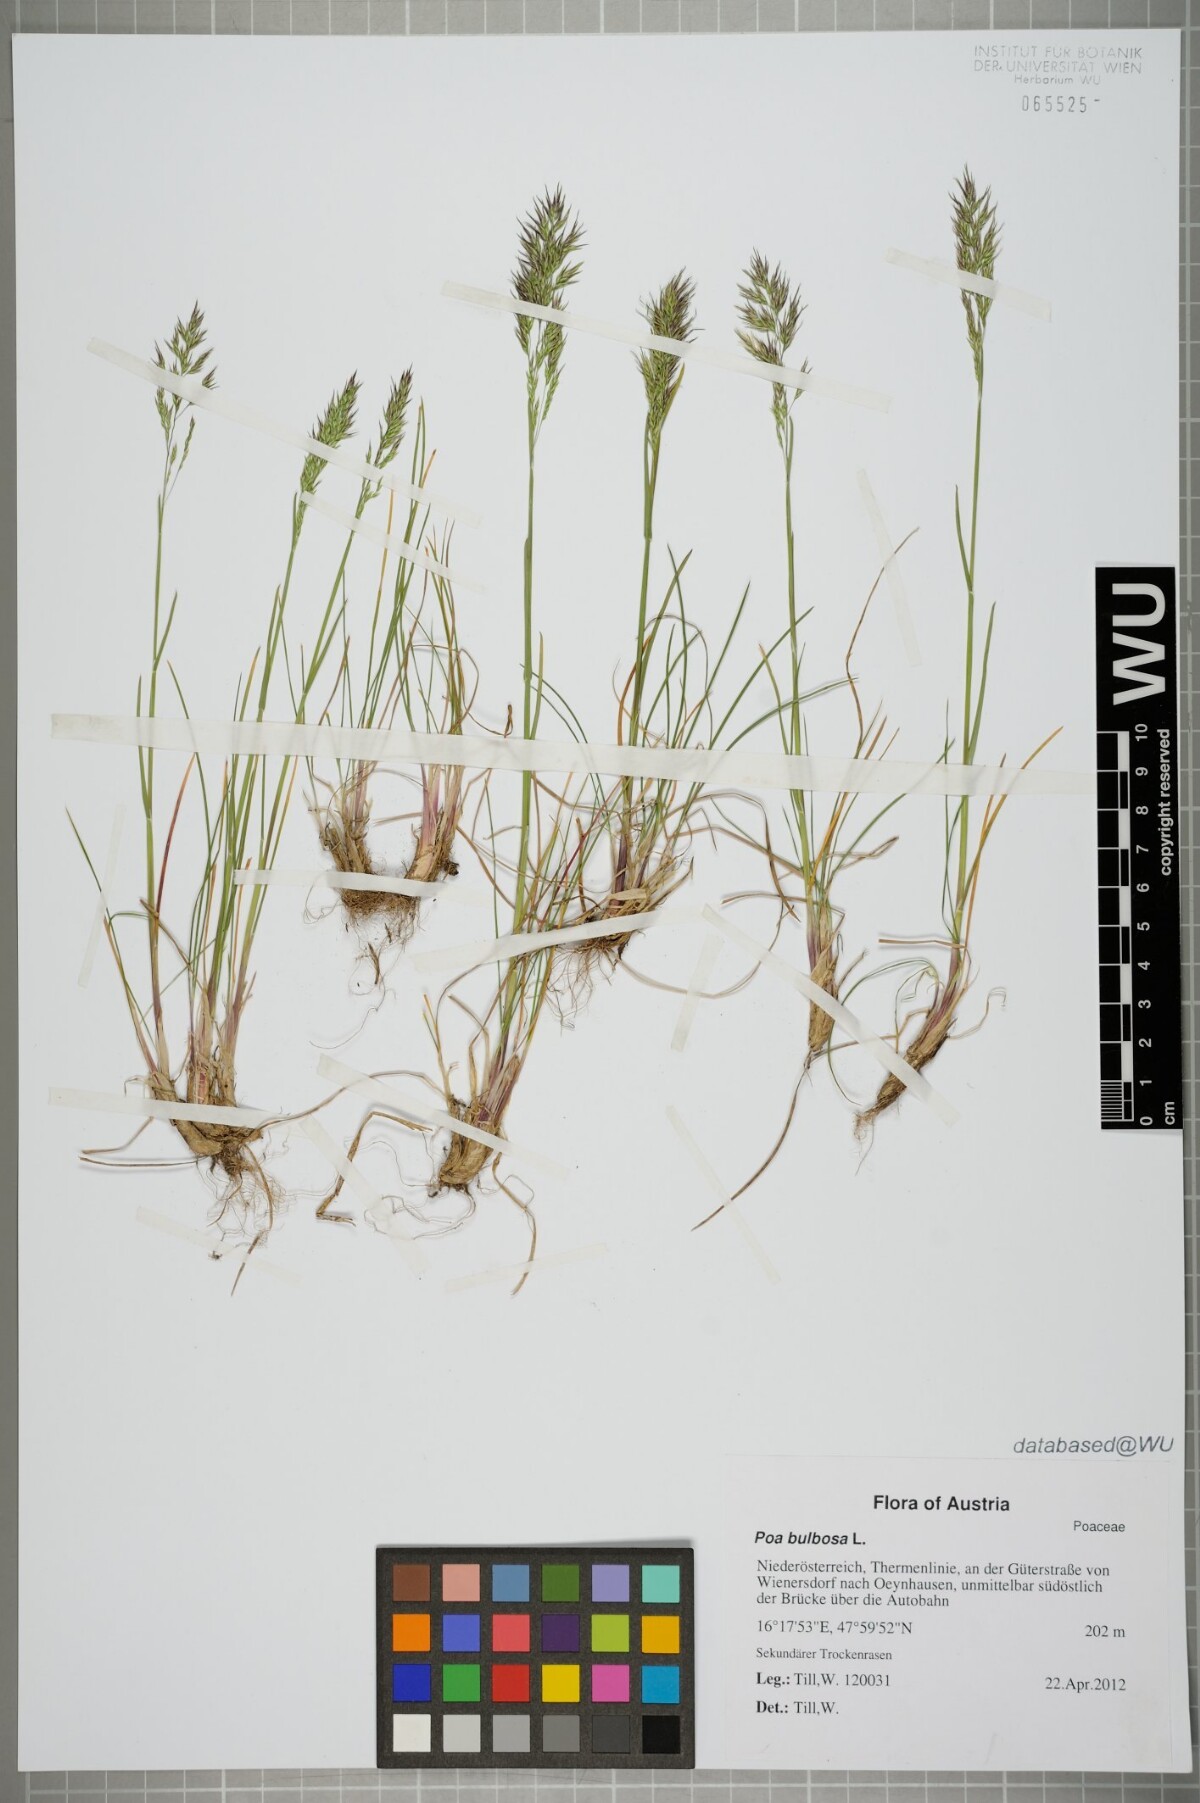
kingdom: Plantae
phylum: Tracheophyta
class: Liliopsida
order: Poales
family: Poaceae
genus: Poa
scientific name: Poa bulbosa
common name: Bulbous bluegrass
